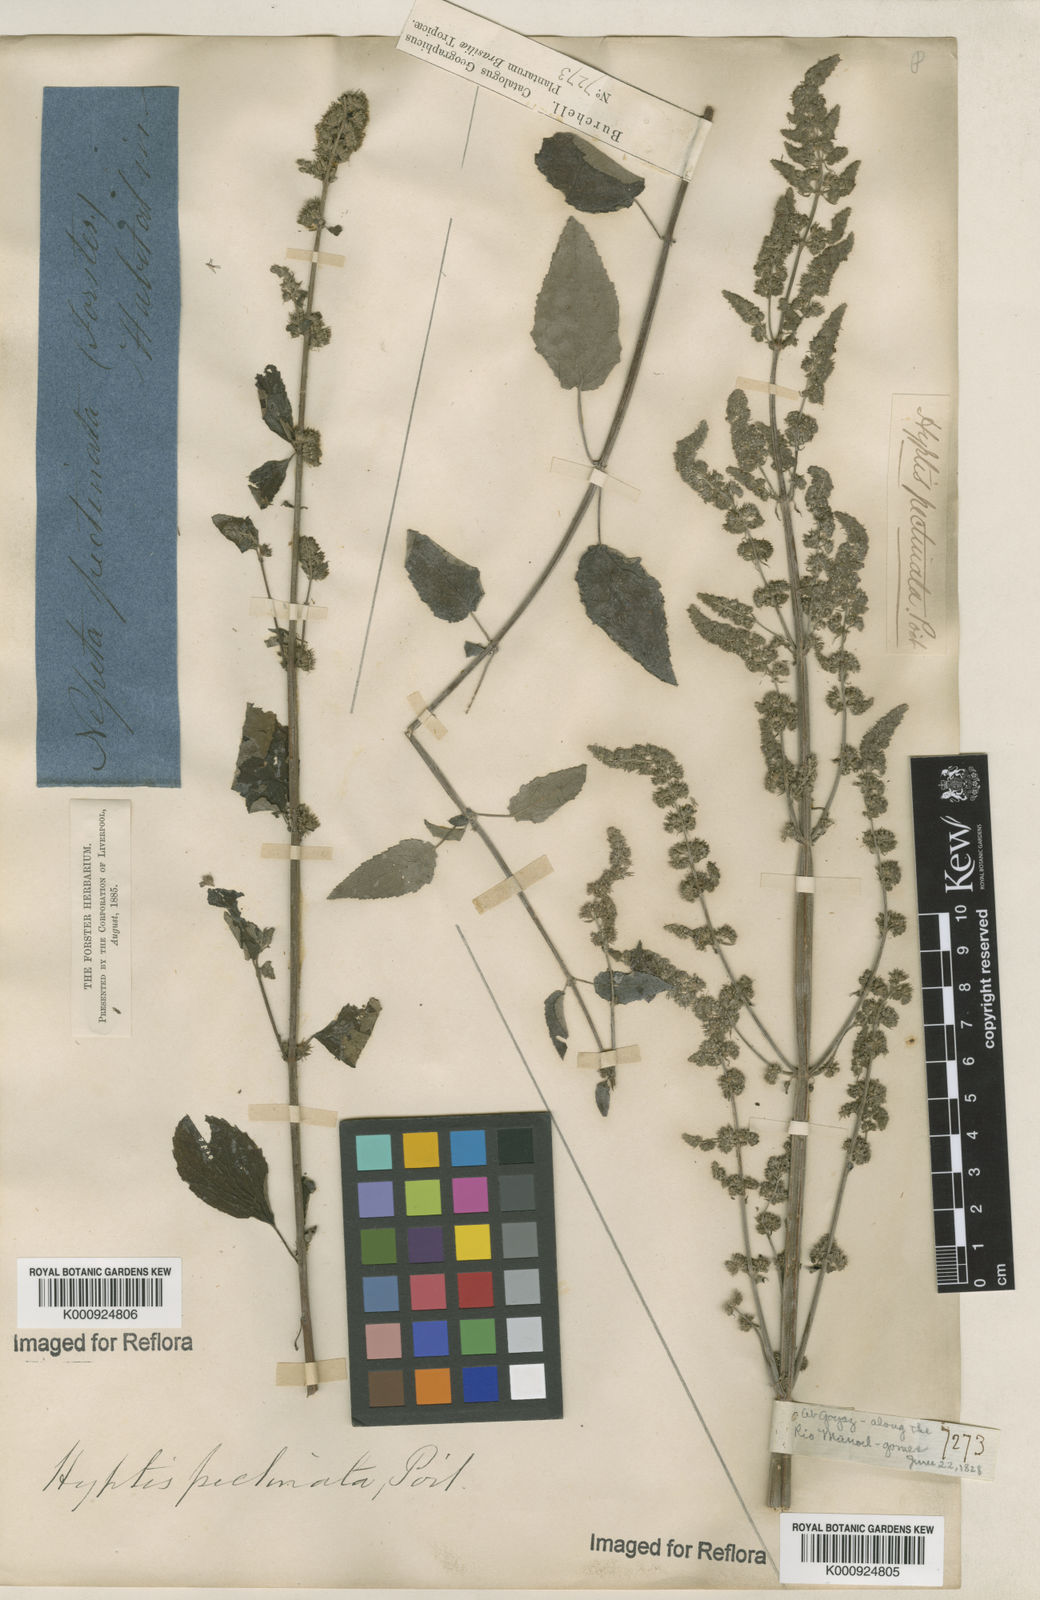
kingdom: Plantae
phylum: Tracheophyta
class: Magnoliopsida
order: Lamiales
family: Lamiaceae
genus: Mesosphaerum
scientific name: Mesosphaerum pectinatum
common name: Comb hyptis
